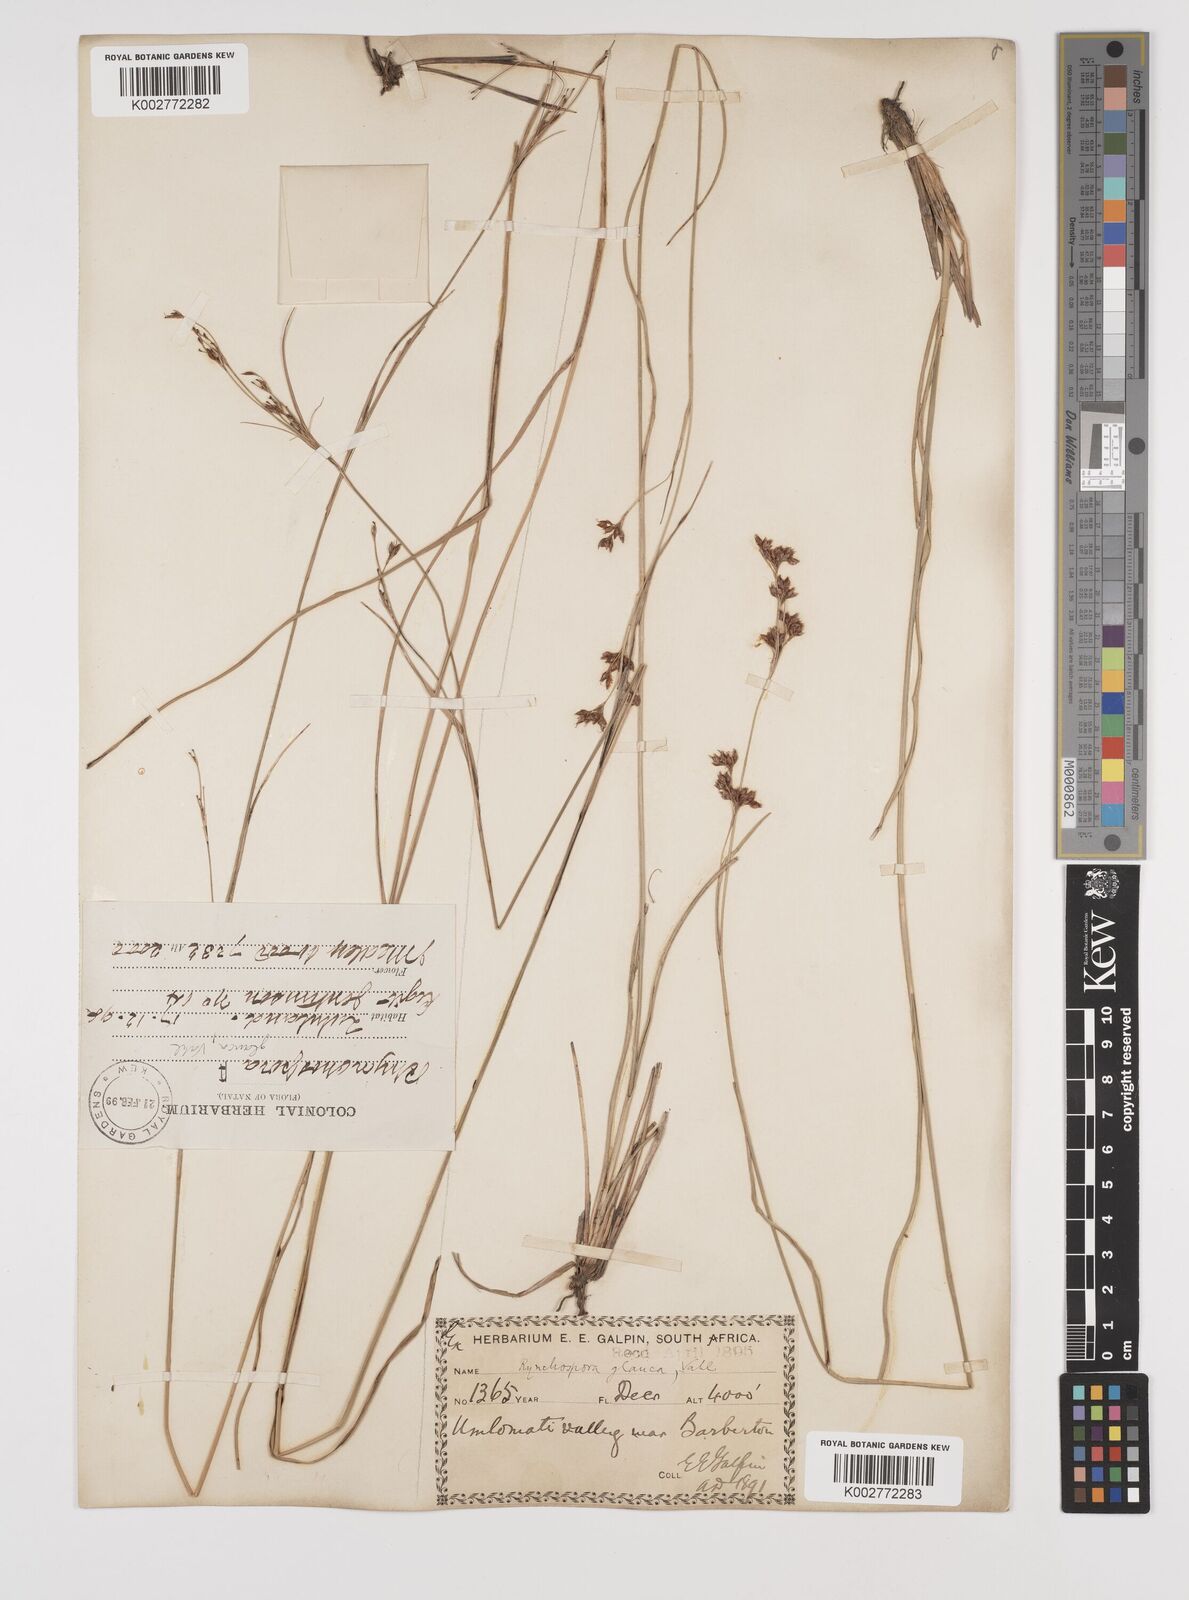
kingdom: Plantae
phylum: Tracheophyta
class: Liliopsida
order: Poales
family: Cyperaceae
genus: Rhynchospora
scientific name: Rhynchospora rugosa
